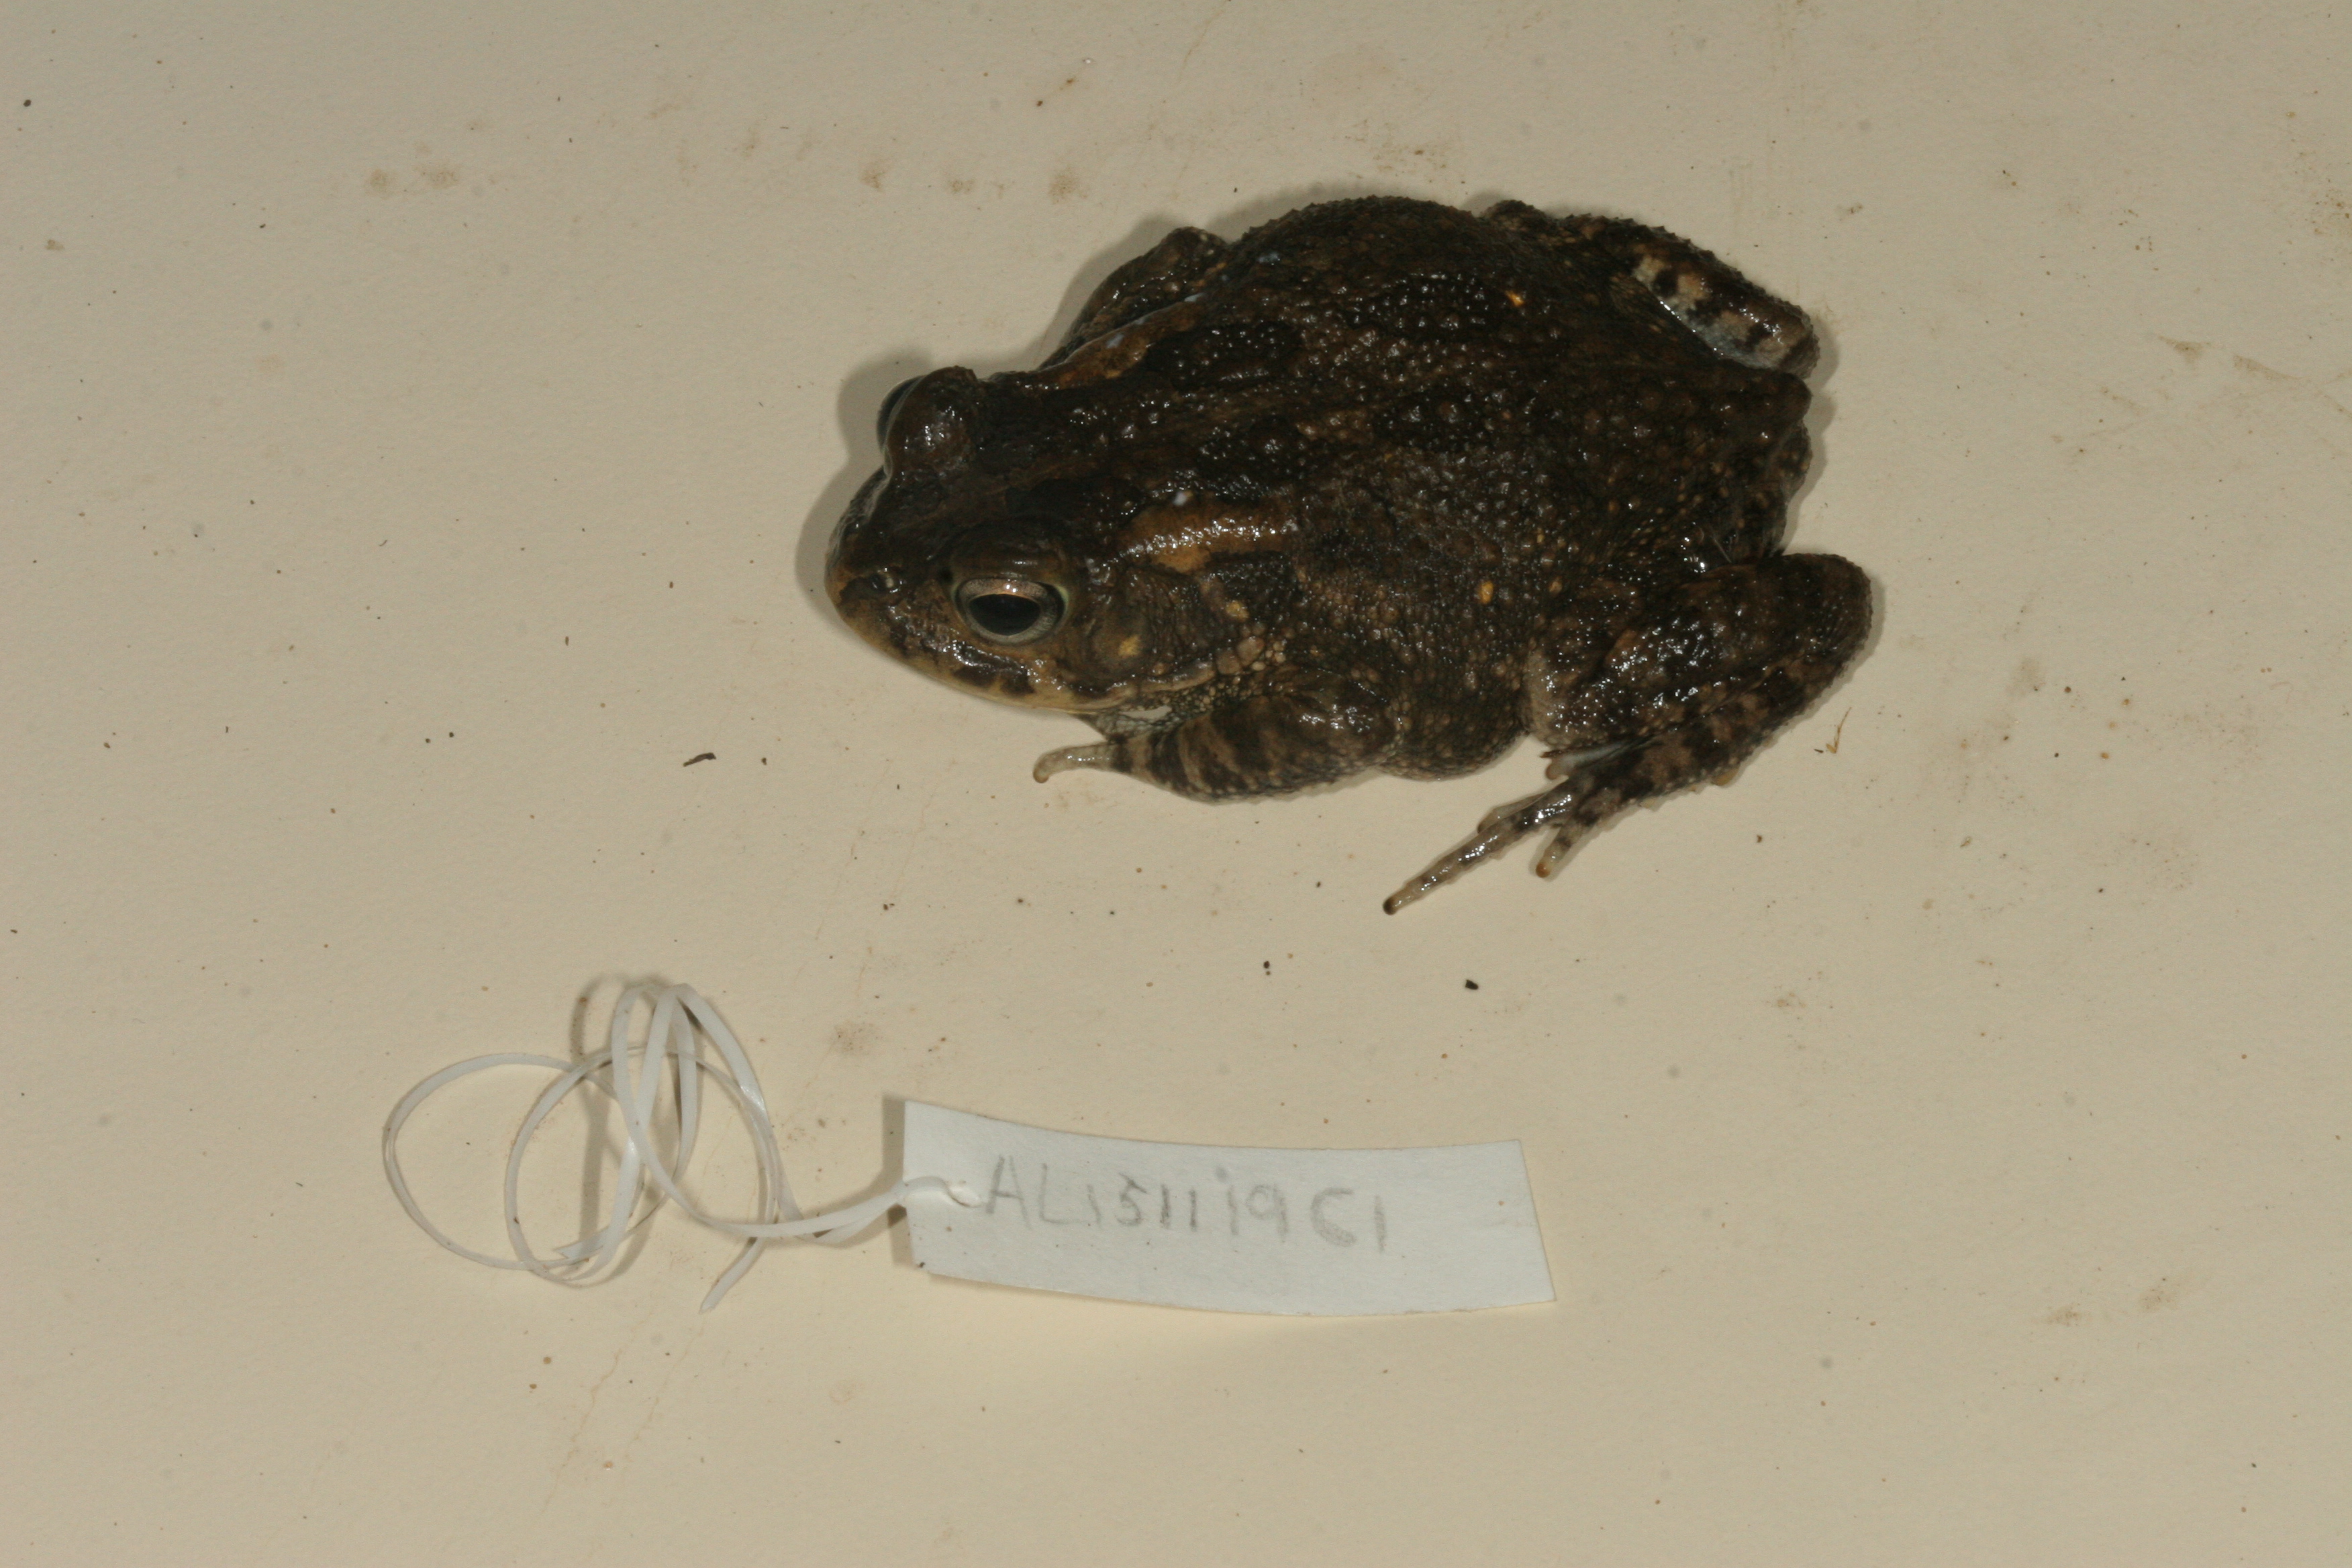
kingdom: Animalia
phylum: Chordata
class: Amphibia
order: Anura
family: Bufonidae
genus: Sclerophrys
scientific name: Sclerophrys gutturalis
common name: African common toad
